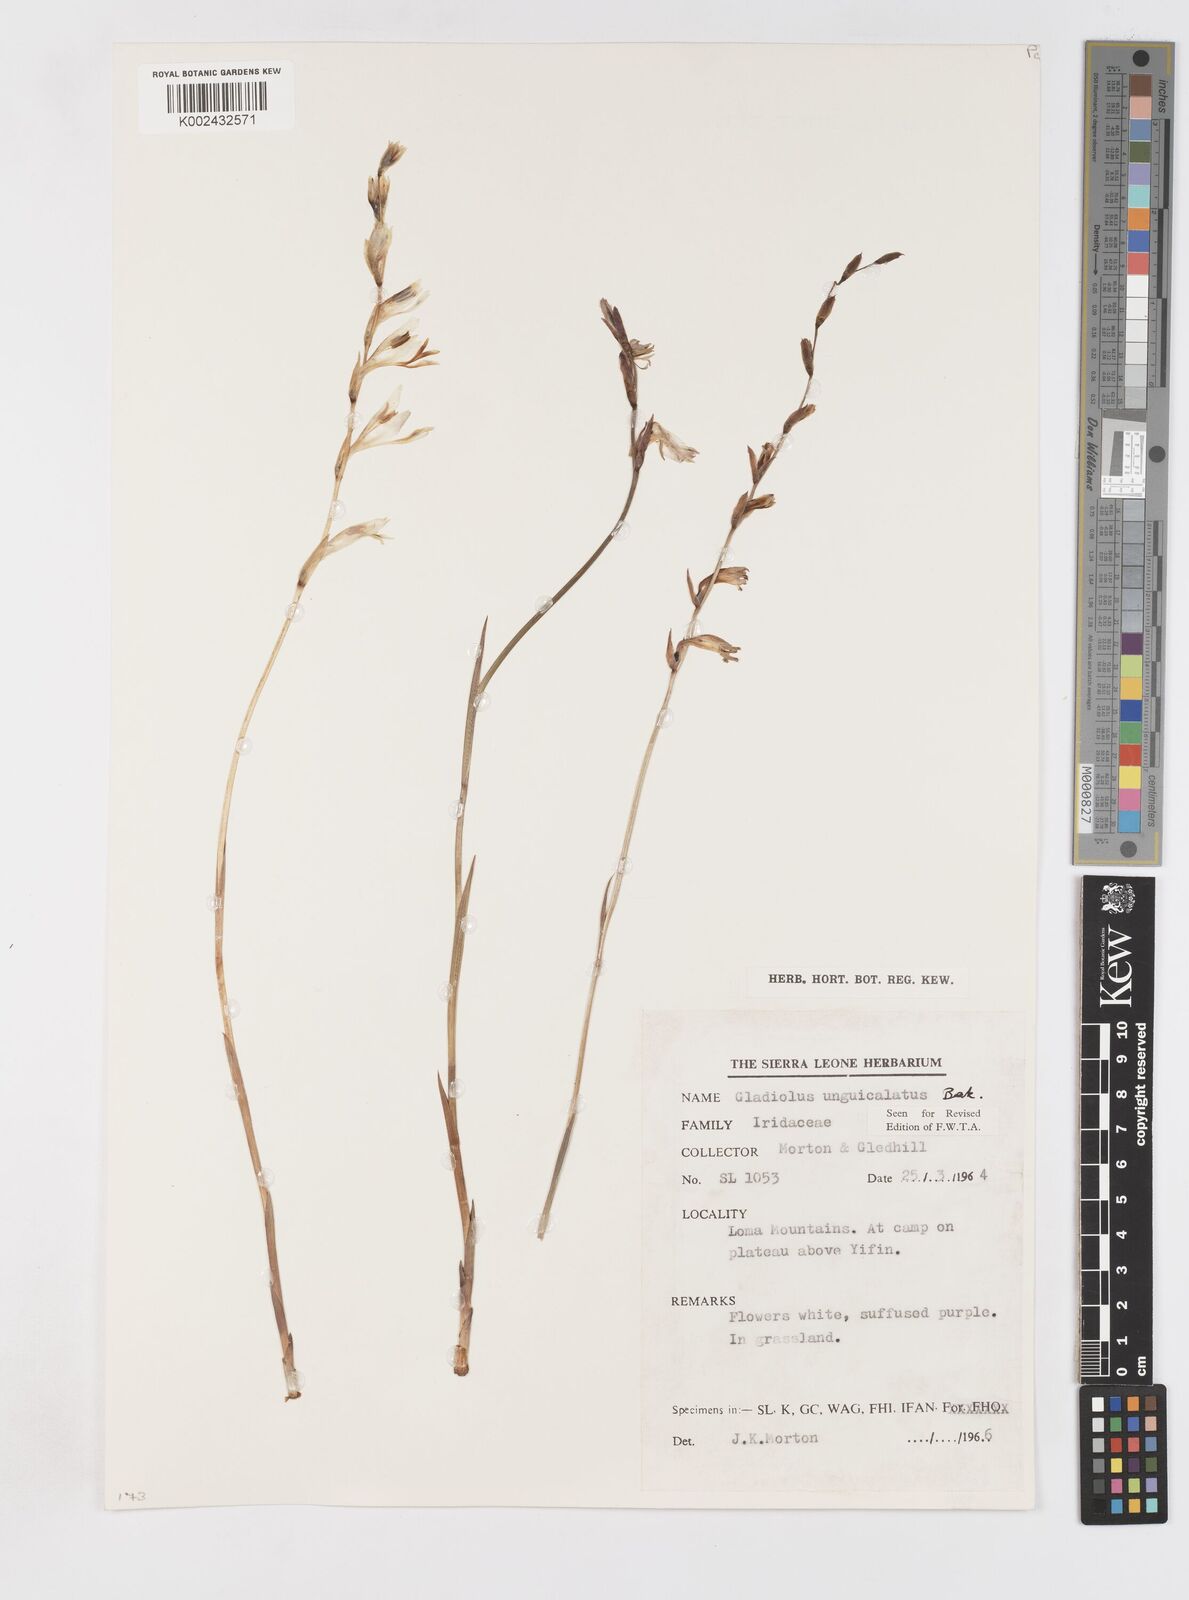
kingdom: Plantae
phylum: Tracheophyta
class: Liliopsida
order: Asparagales
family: Iridaceae
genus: Gladiolus
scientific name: Gladiolus unguiculatus
